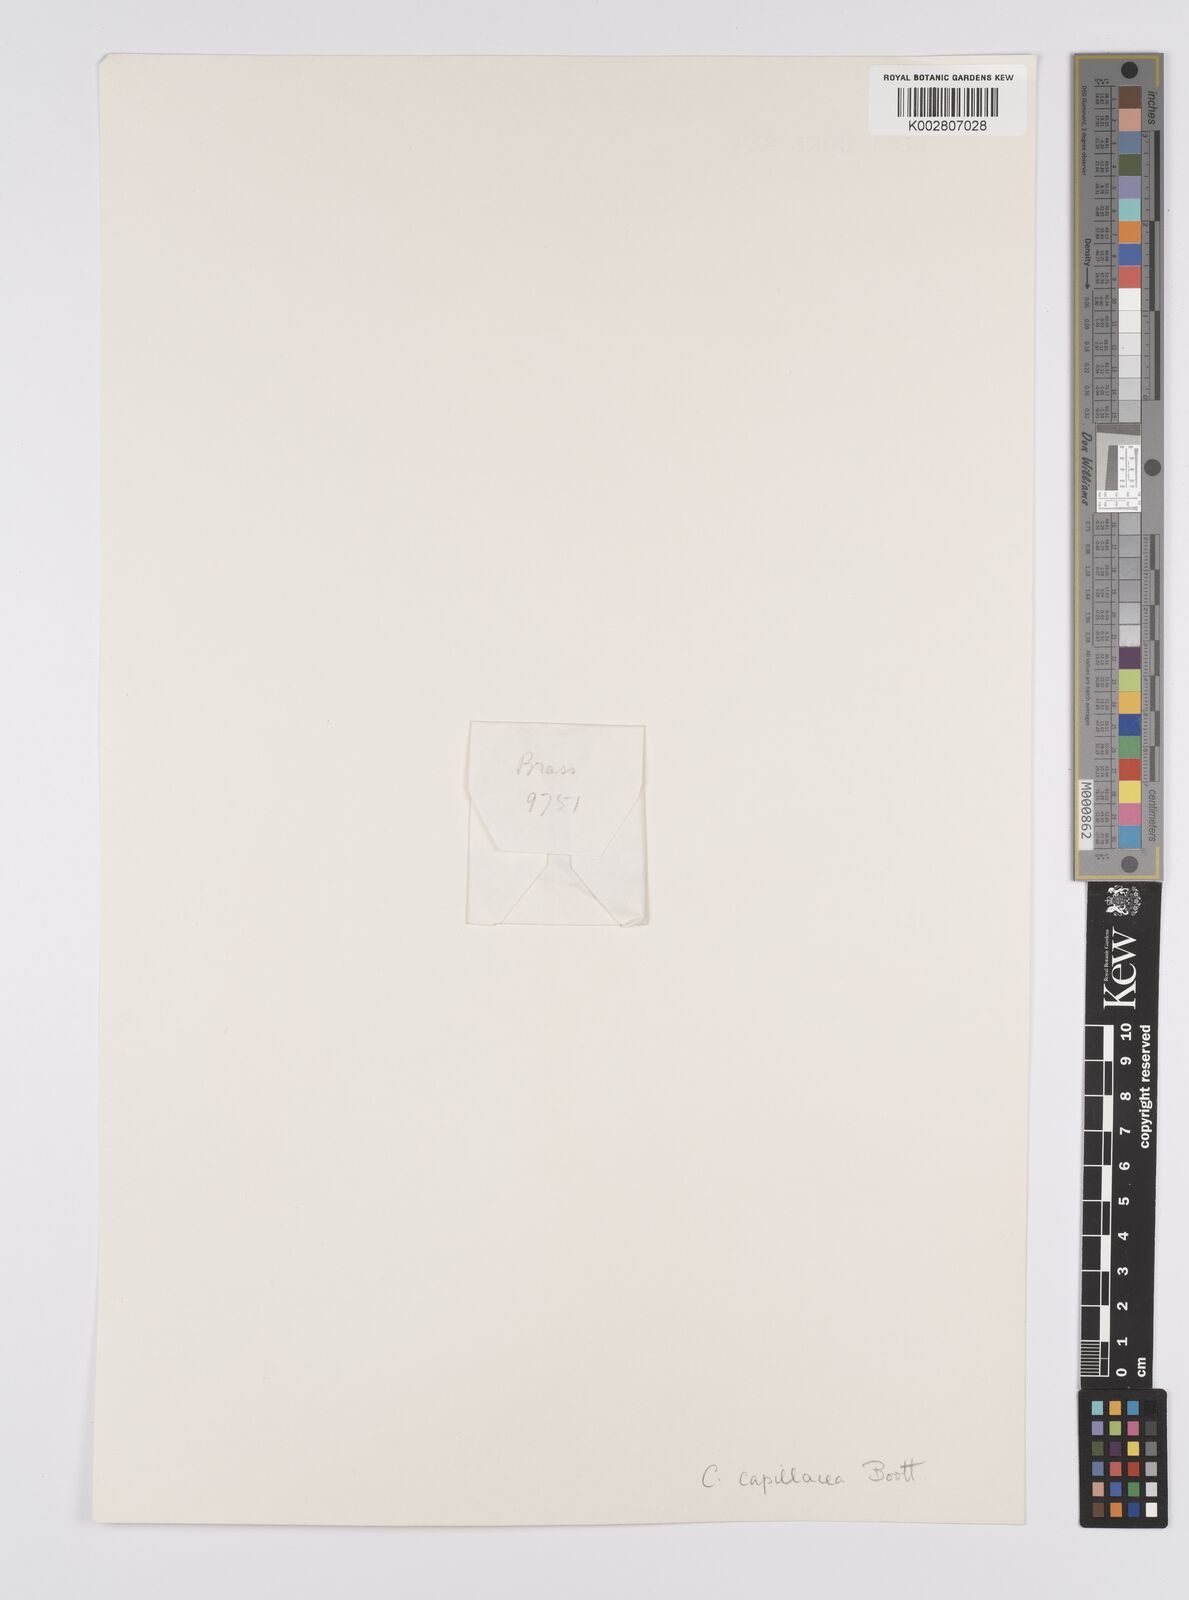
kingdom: Plantae
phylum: Tracheophyta
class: Liliopsida
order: Poales
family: Cyperaceae
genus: Carex
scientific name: Carex capillacea
